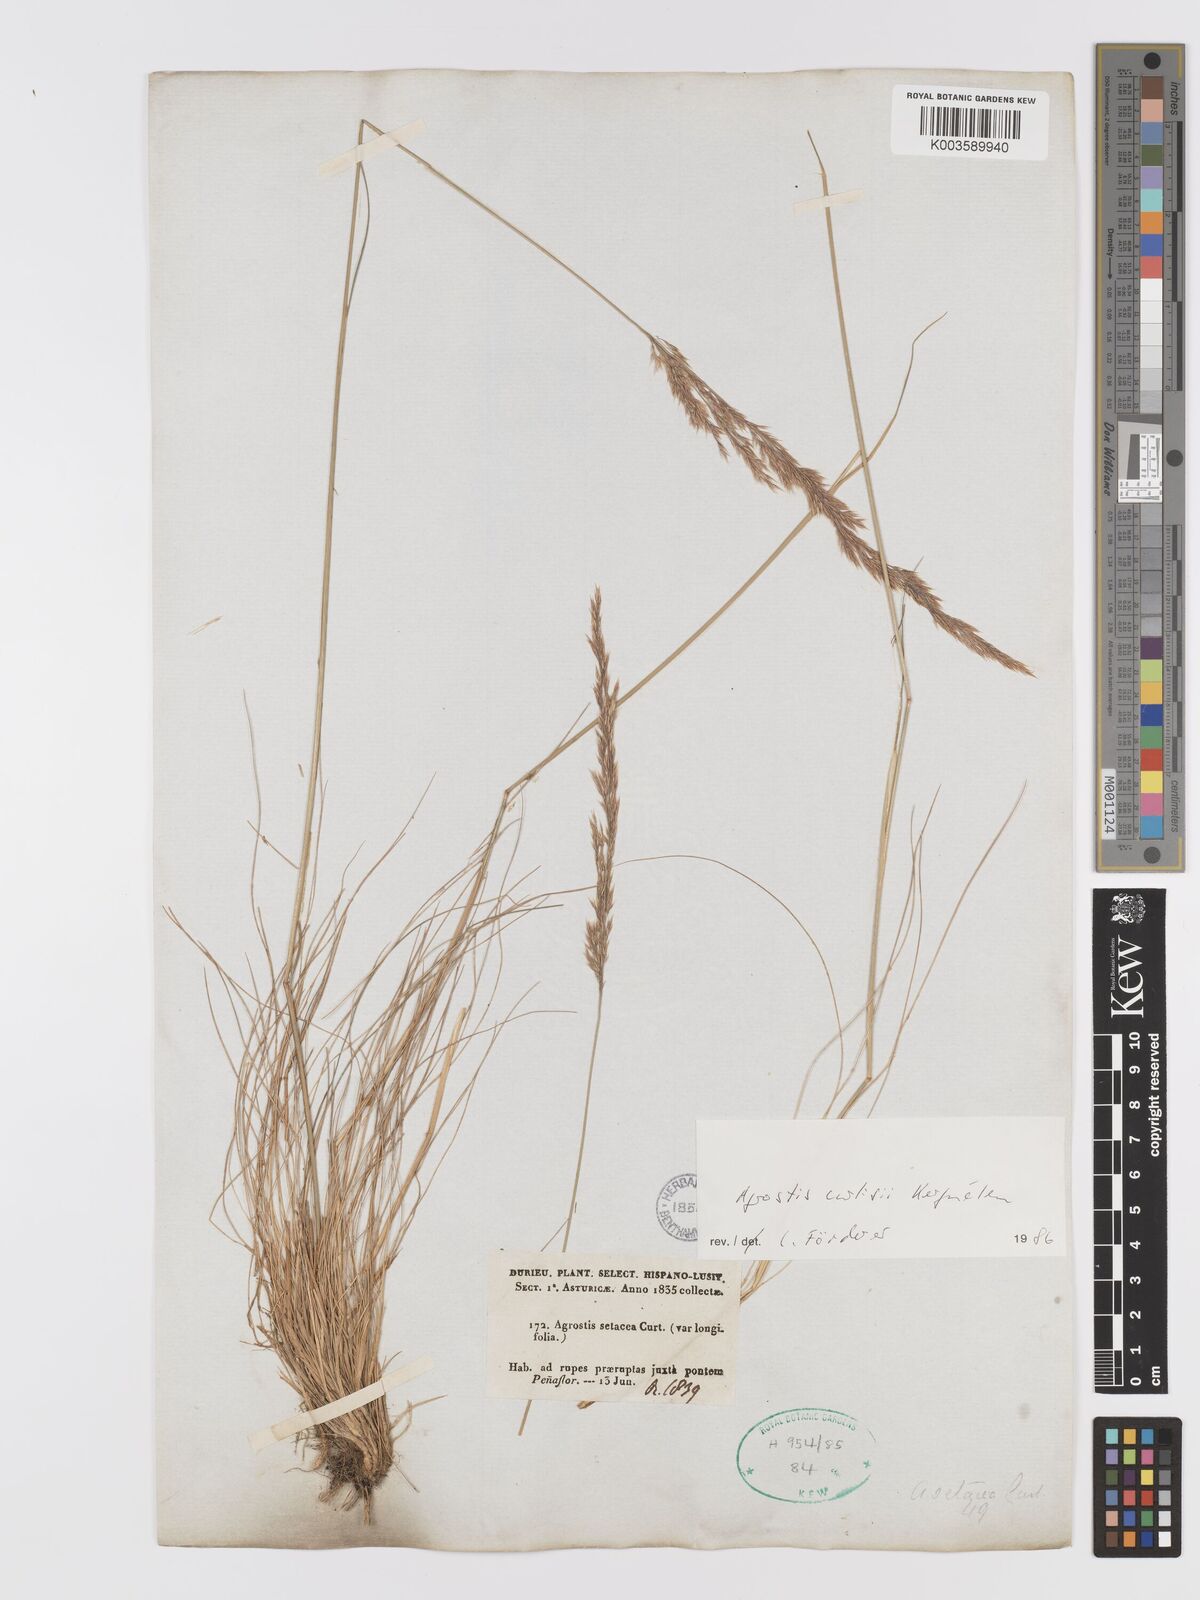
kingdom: Plantae
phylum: Tracheophyta
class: Liliopsida
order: Poales
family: Poaceae
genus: Alpagrostis
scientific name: Alpagrostis setacea
